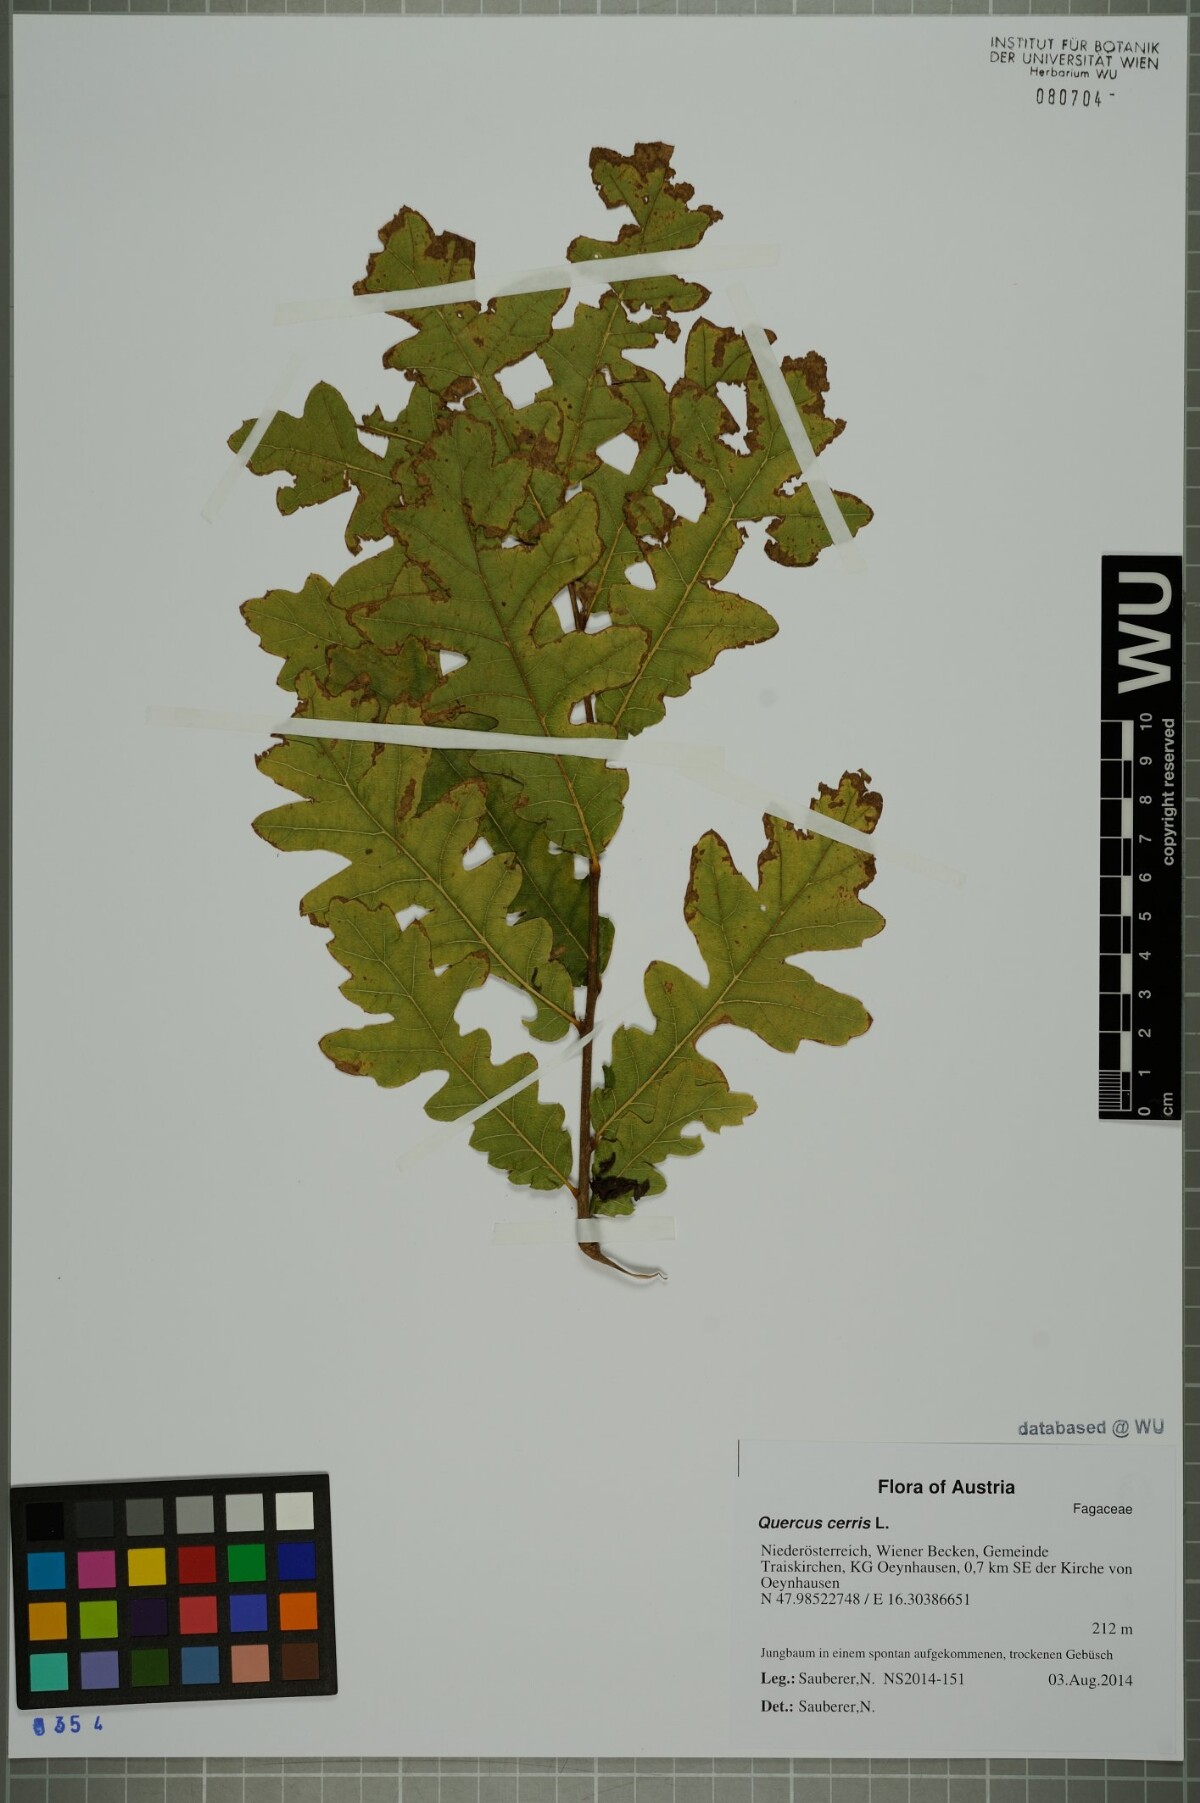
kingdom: Plantae
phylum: Tracheophyta
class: Magnoliopsida
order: Fagales
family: Fagaceae
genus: Quercus
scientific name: Quercus cerris
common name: Turkey oak
